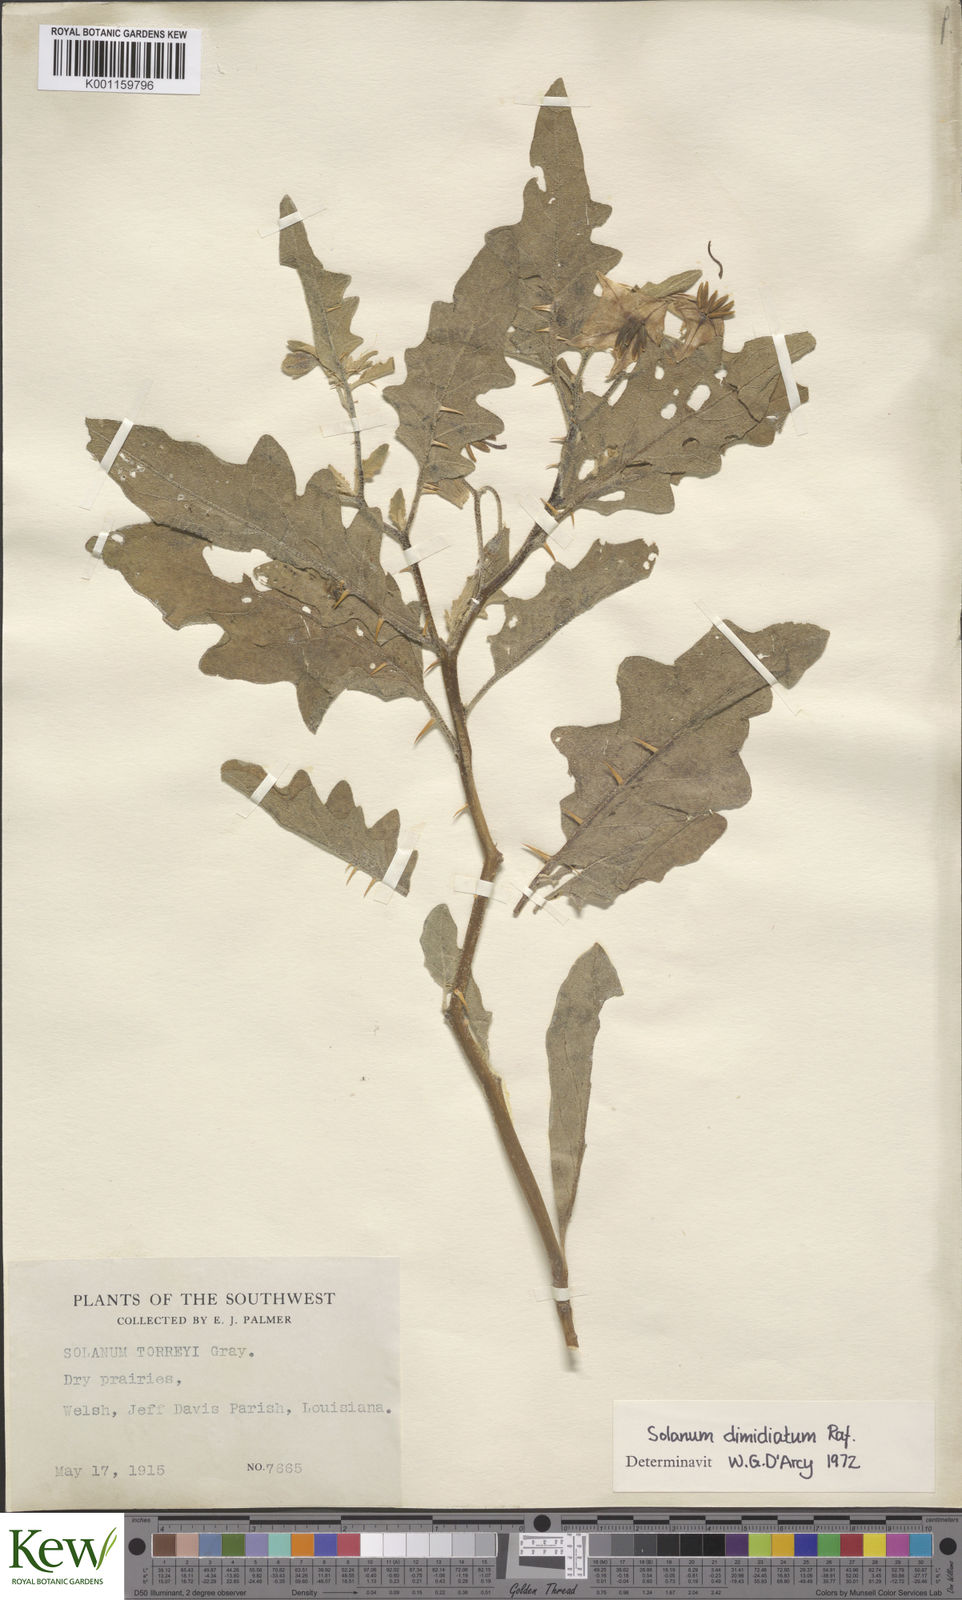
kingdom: Plantae
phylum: Tracheophyta
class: Magnoliopsida
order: Solanales
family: Solanaceae
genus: Solanum
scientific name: Solanum dimidiatum
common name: Carolina horse-nettle
